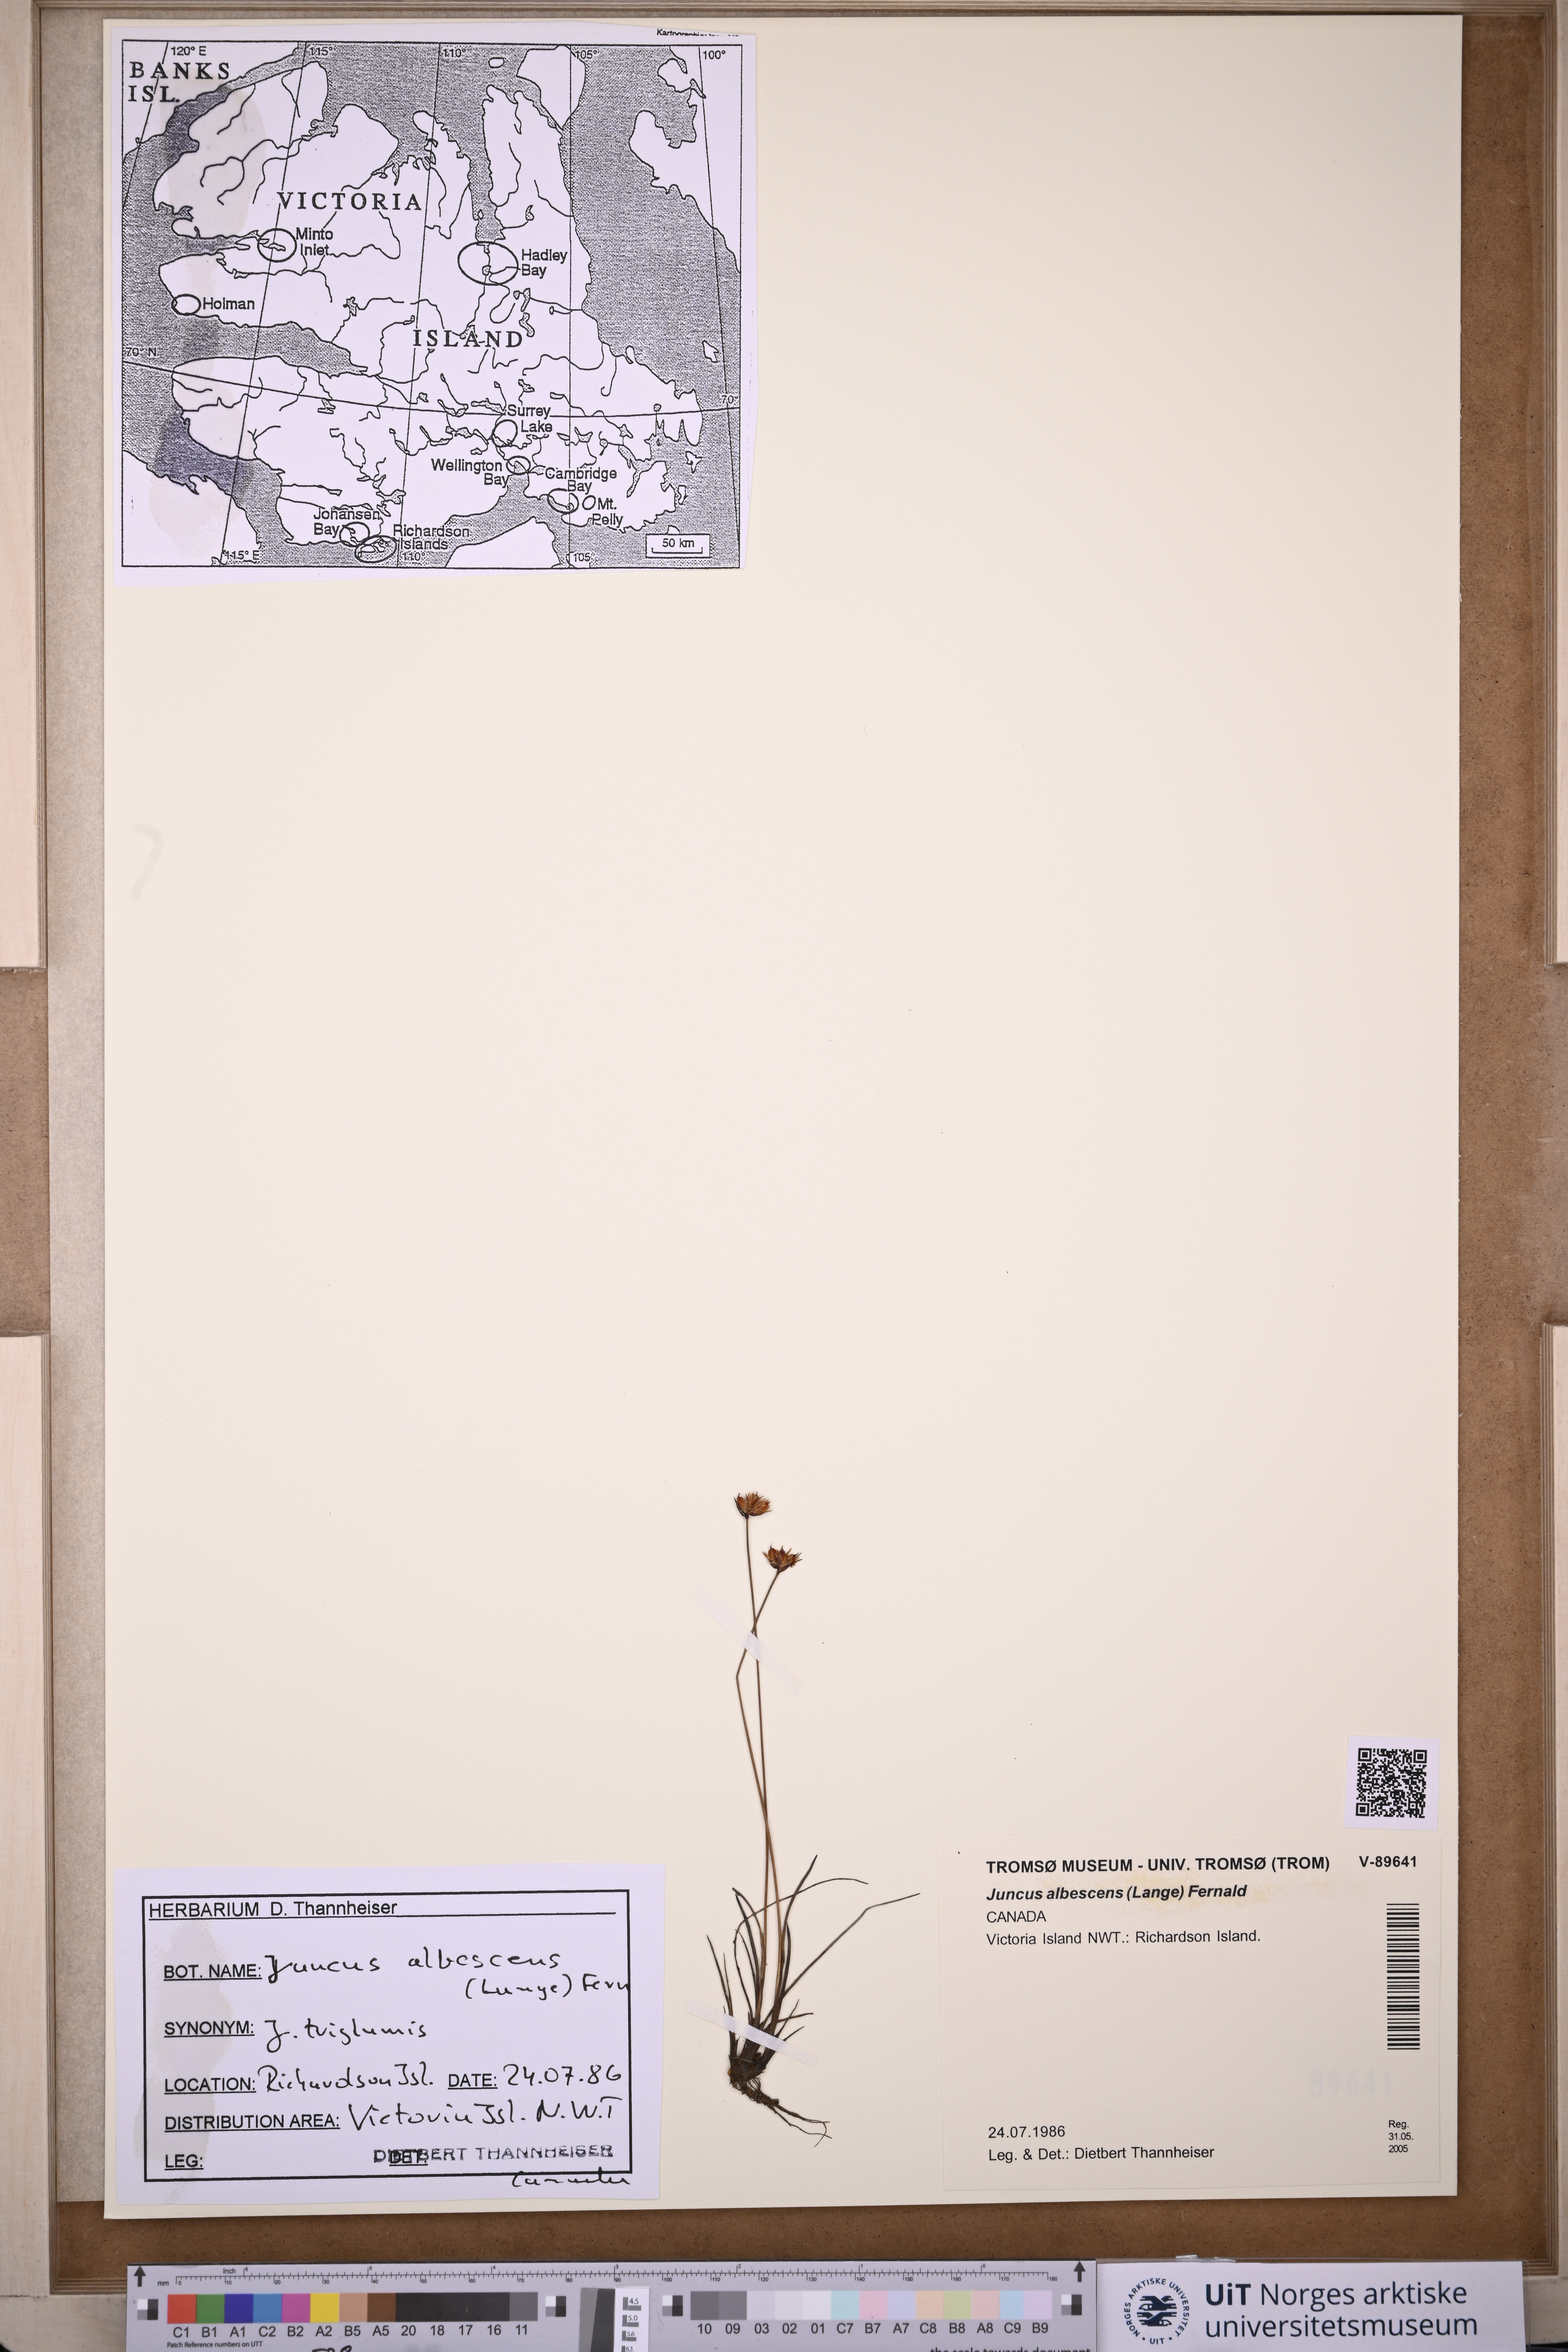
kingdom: Plantae
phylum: Tracheophyta
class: Liliopsida
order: Poales
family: Juncaceae
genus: Juncus
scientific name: Juncus albescens
